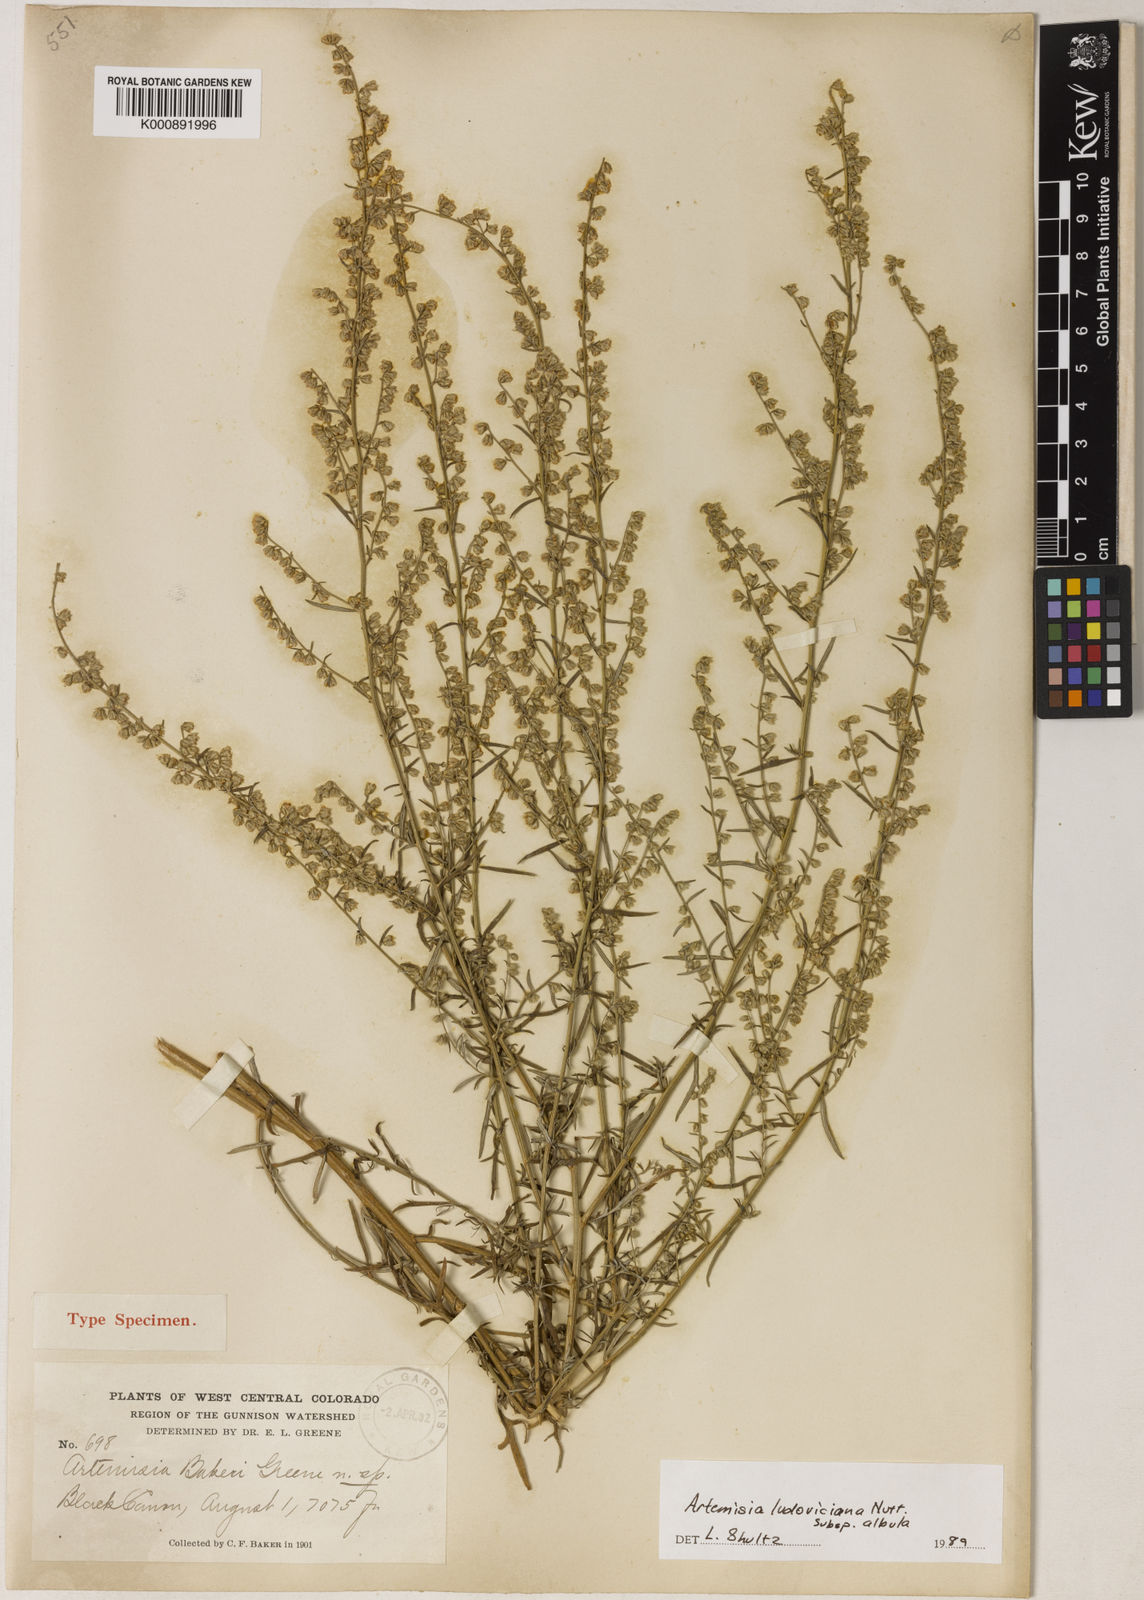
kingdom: Plantae
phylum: Tracheophyta
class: Magnoliopsida
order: Asterales
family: Asteraceae
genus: Artemisia
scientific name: Artemisia michauxiana
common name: Lemon sagewort
